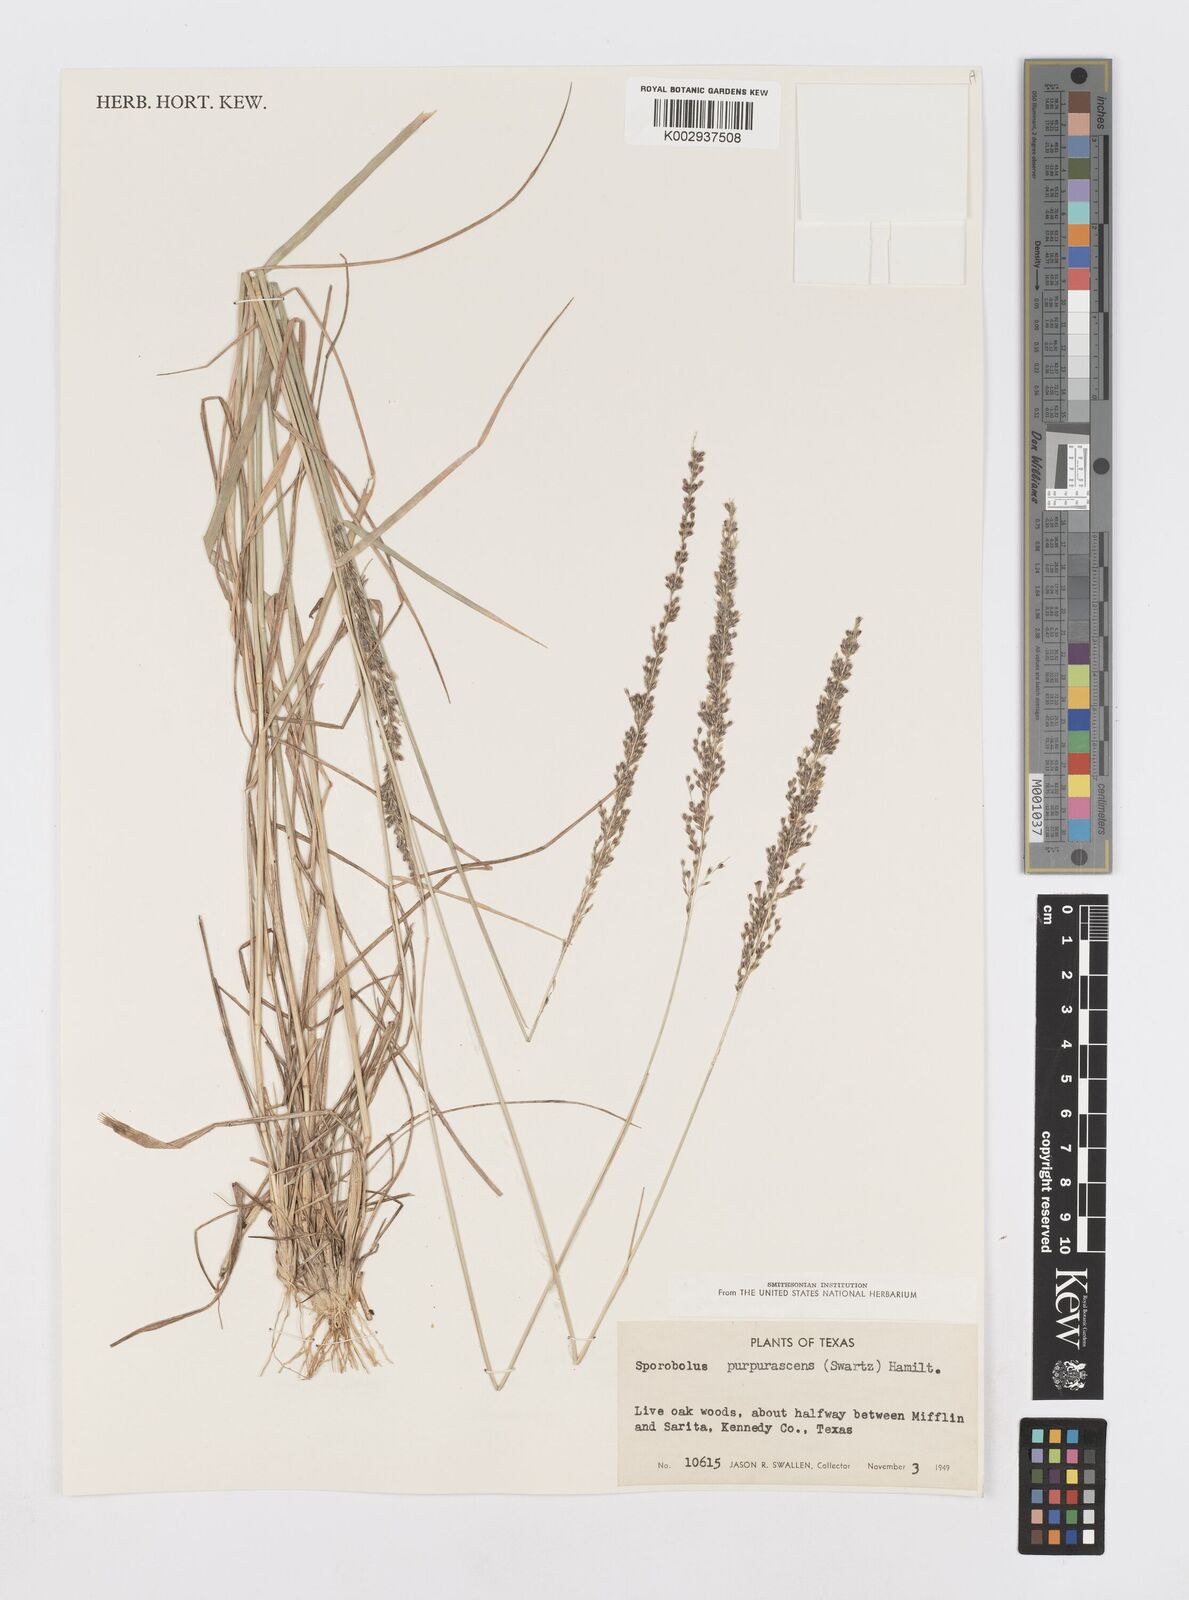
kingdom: Plantae
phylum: Tracheophyta
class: Liliopsida
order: Poales
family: Poaceae
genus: Sporobolus
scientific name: Sporobolus purpurascens
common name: Purple dropseed
